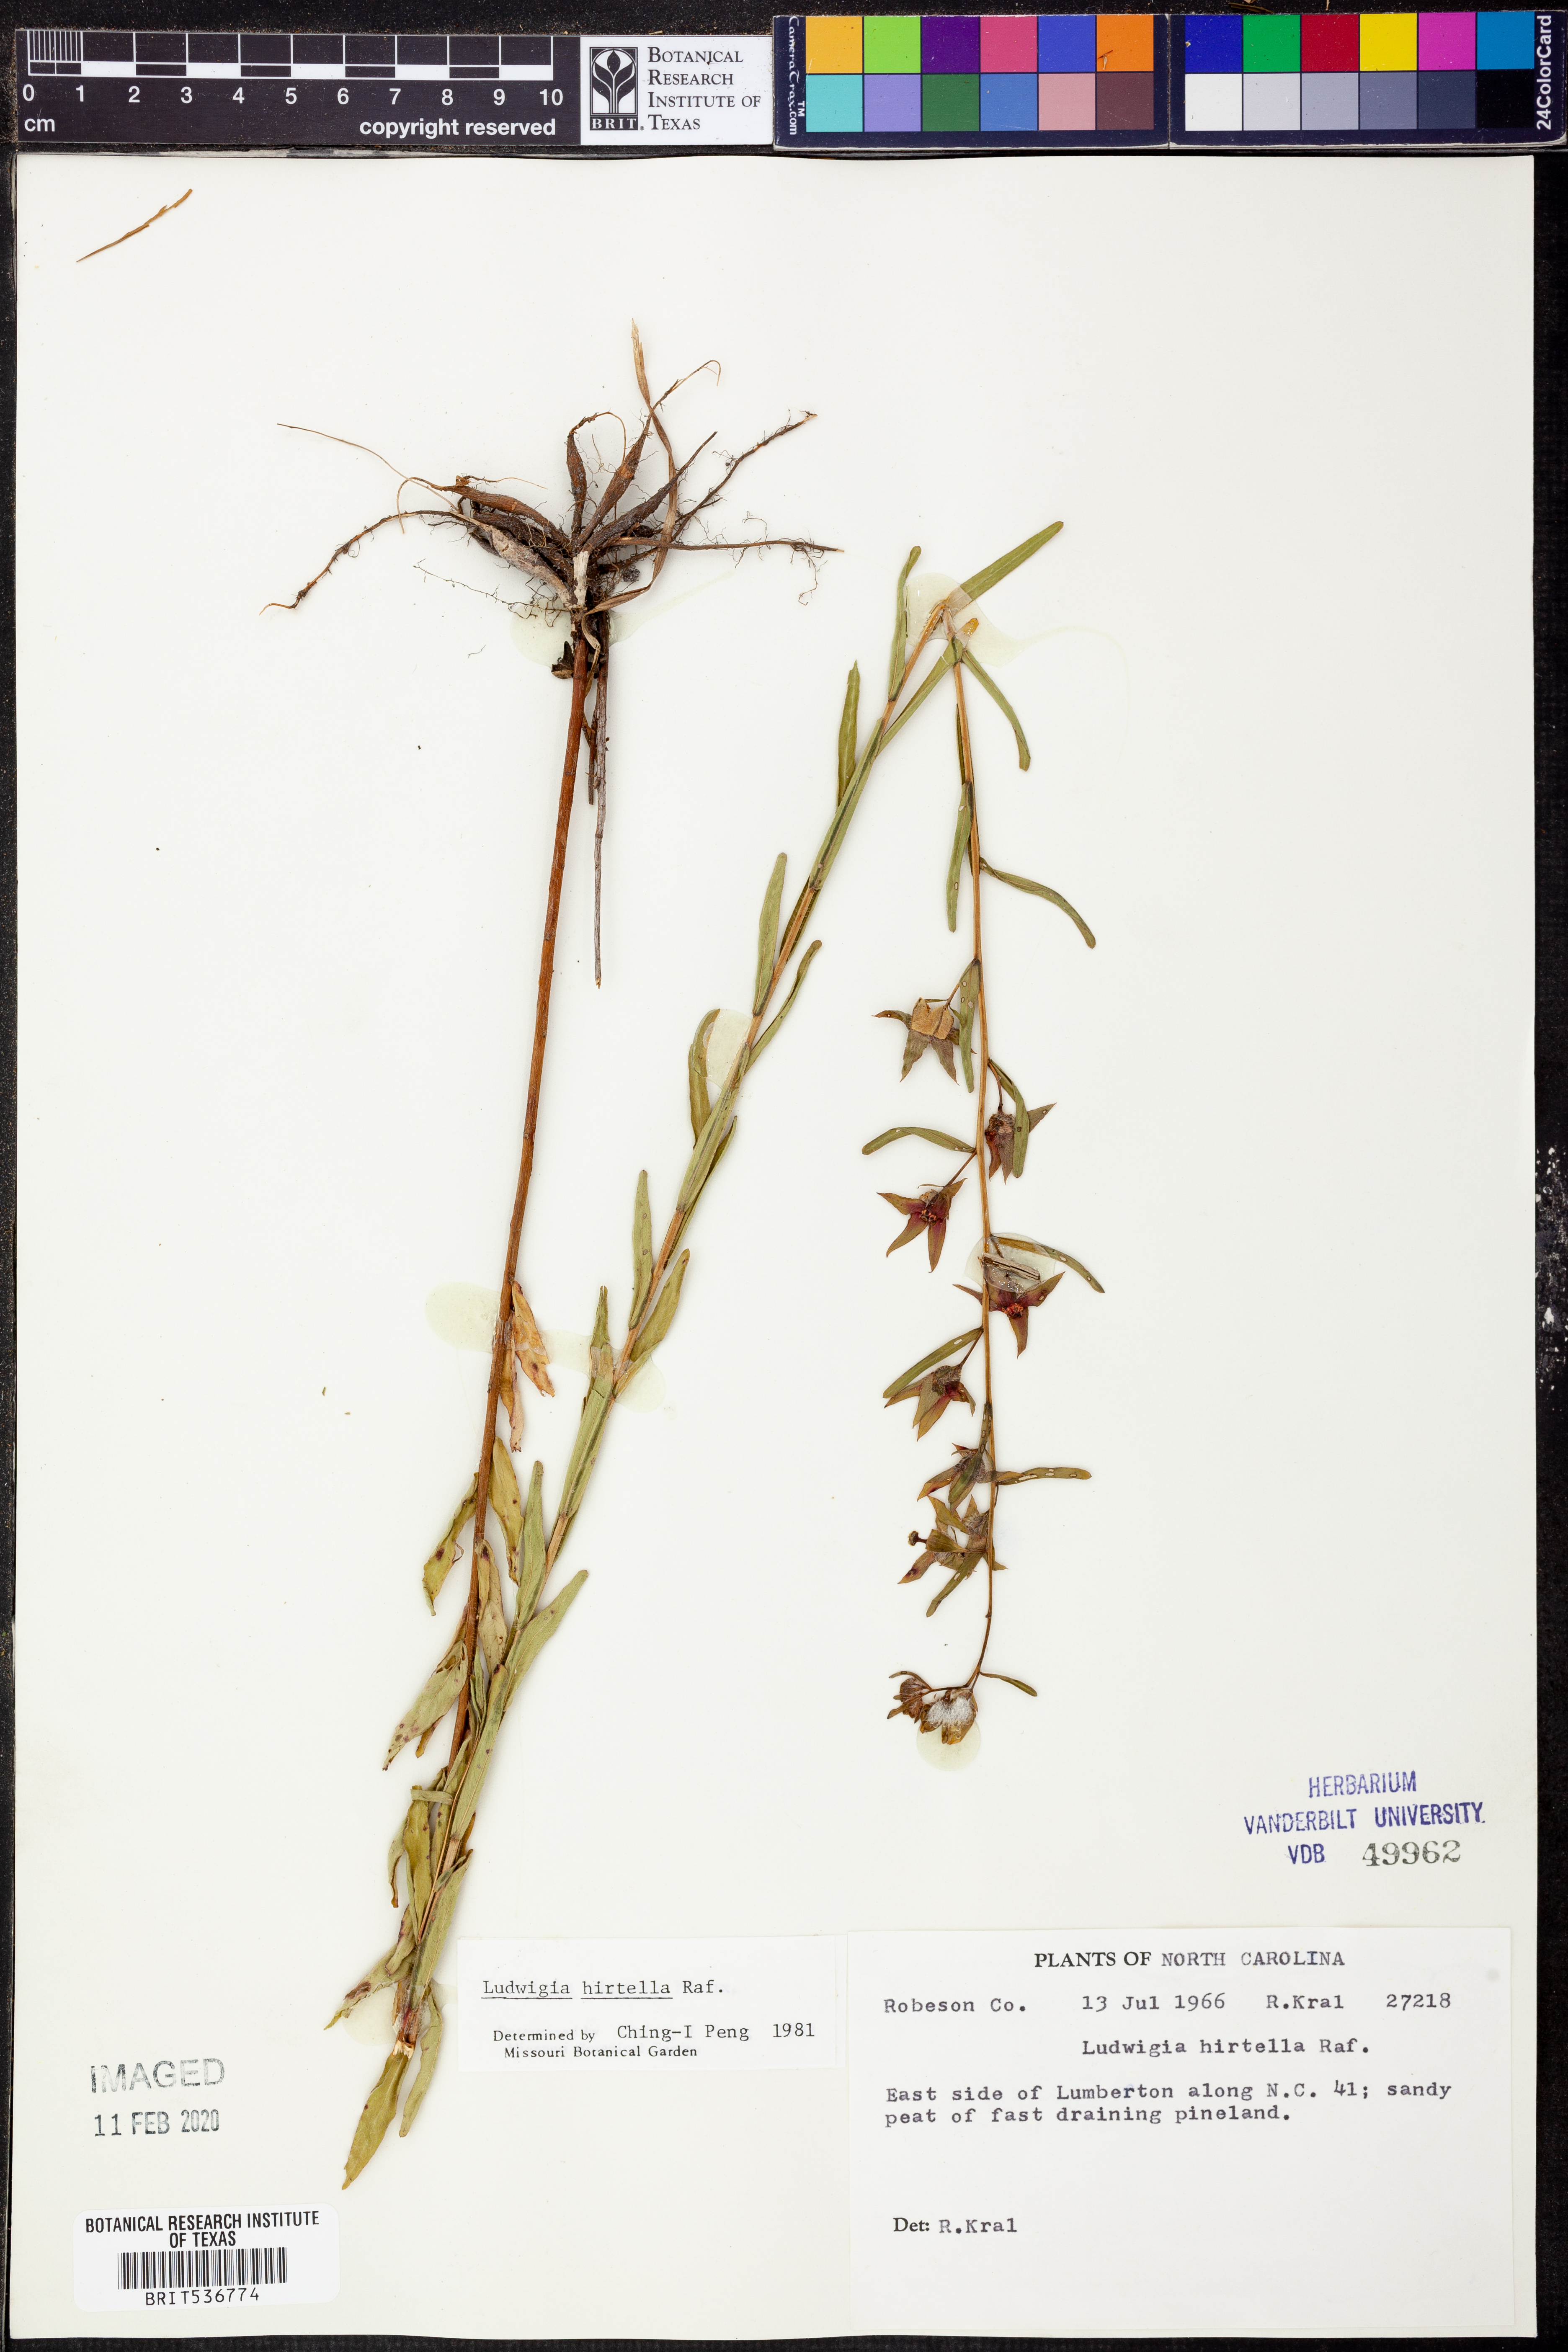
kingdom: Plantae
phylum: Tracheophyta
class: Magnoliopsida
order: Myrtales
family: Onagraceae
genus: Ludwigia
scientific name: Ludwigia hirtella
